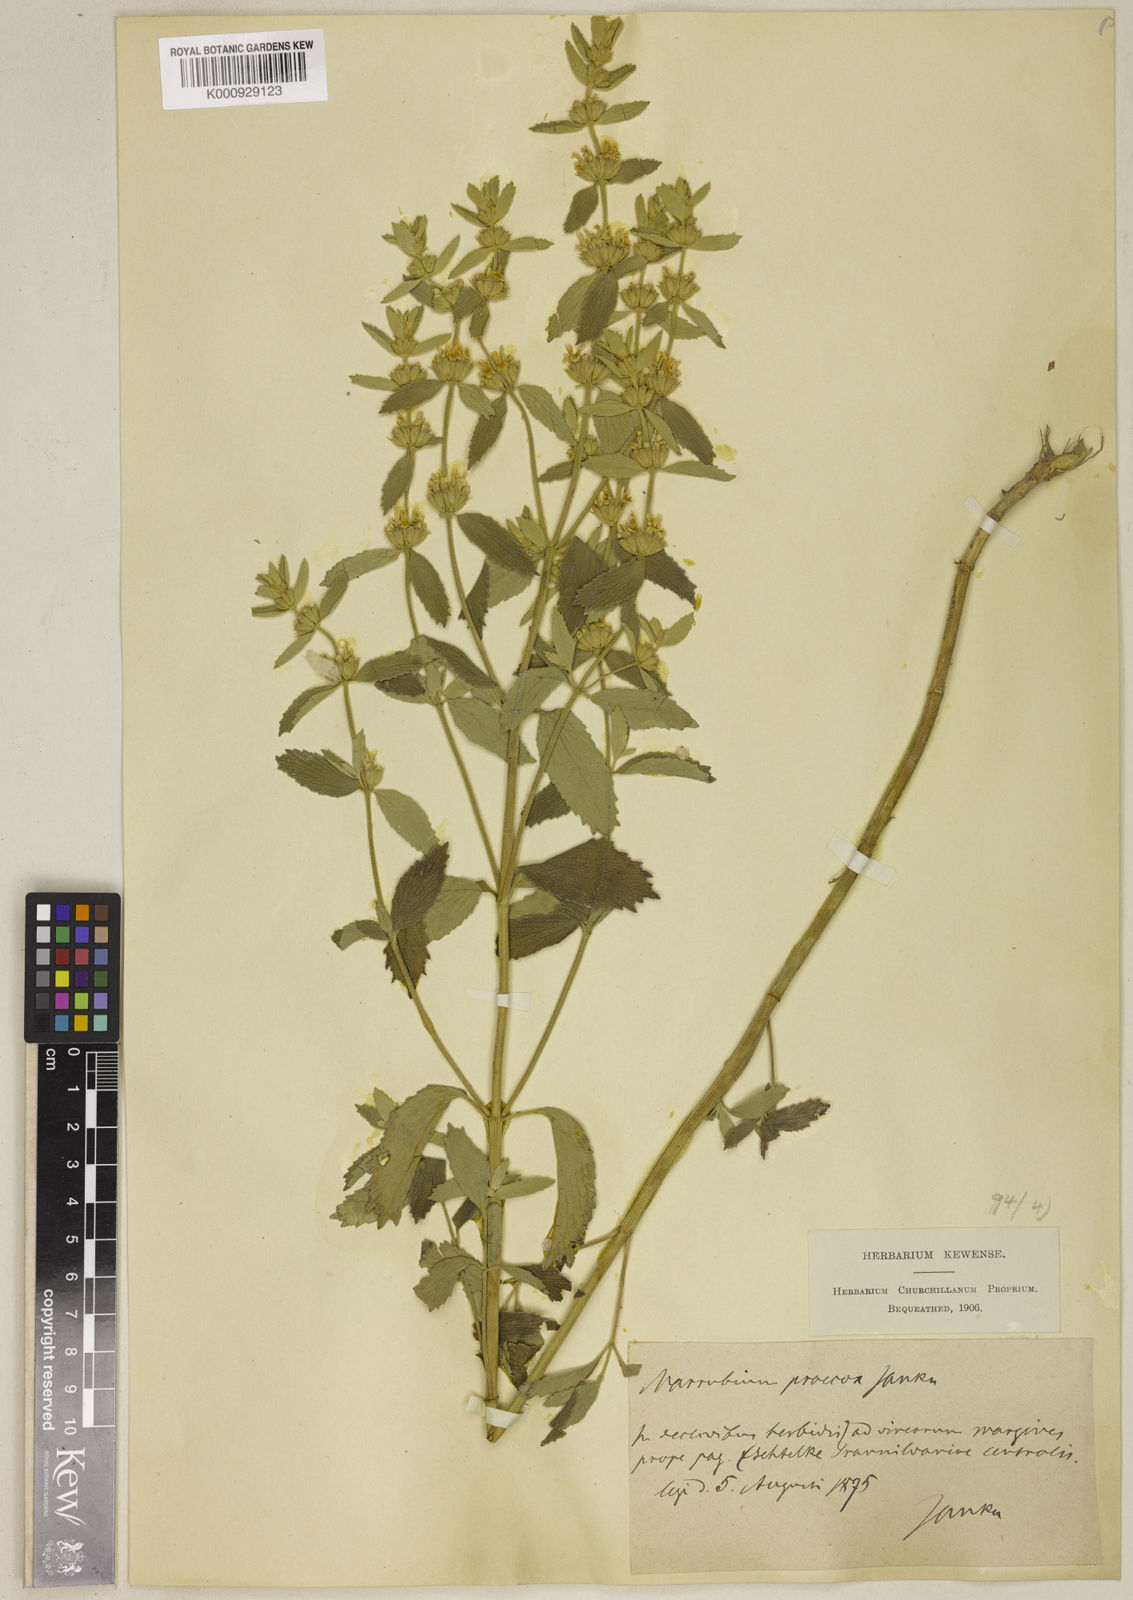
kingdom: Plantae
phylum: Tracheophyta
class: Magnoliopsida
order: Lamiales
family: Lamiaceae
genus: Marrubium
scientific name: Marrubium pestalozzae
